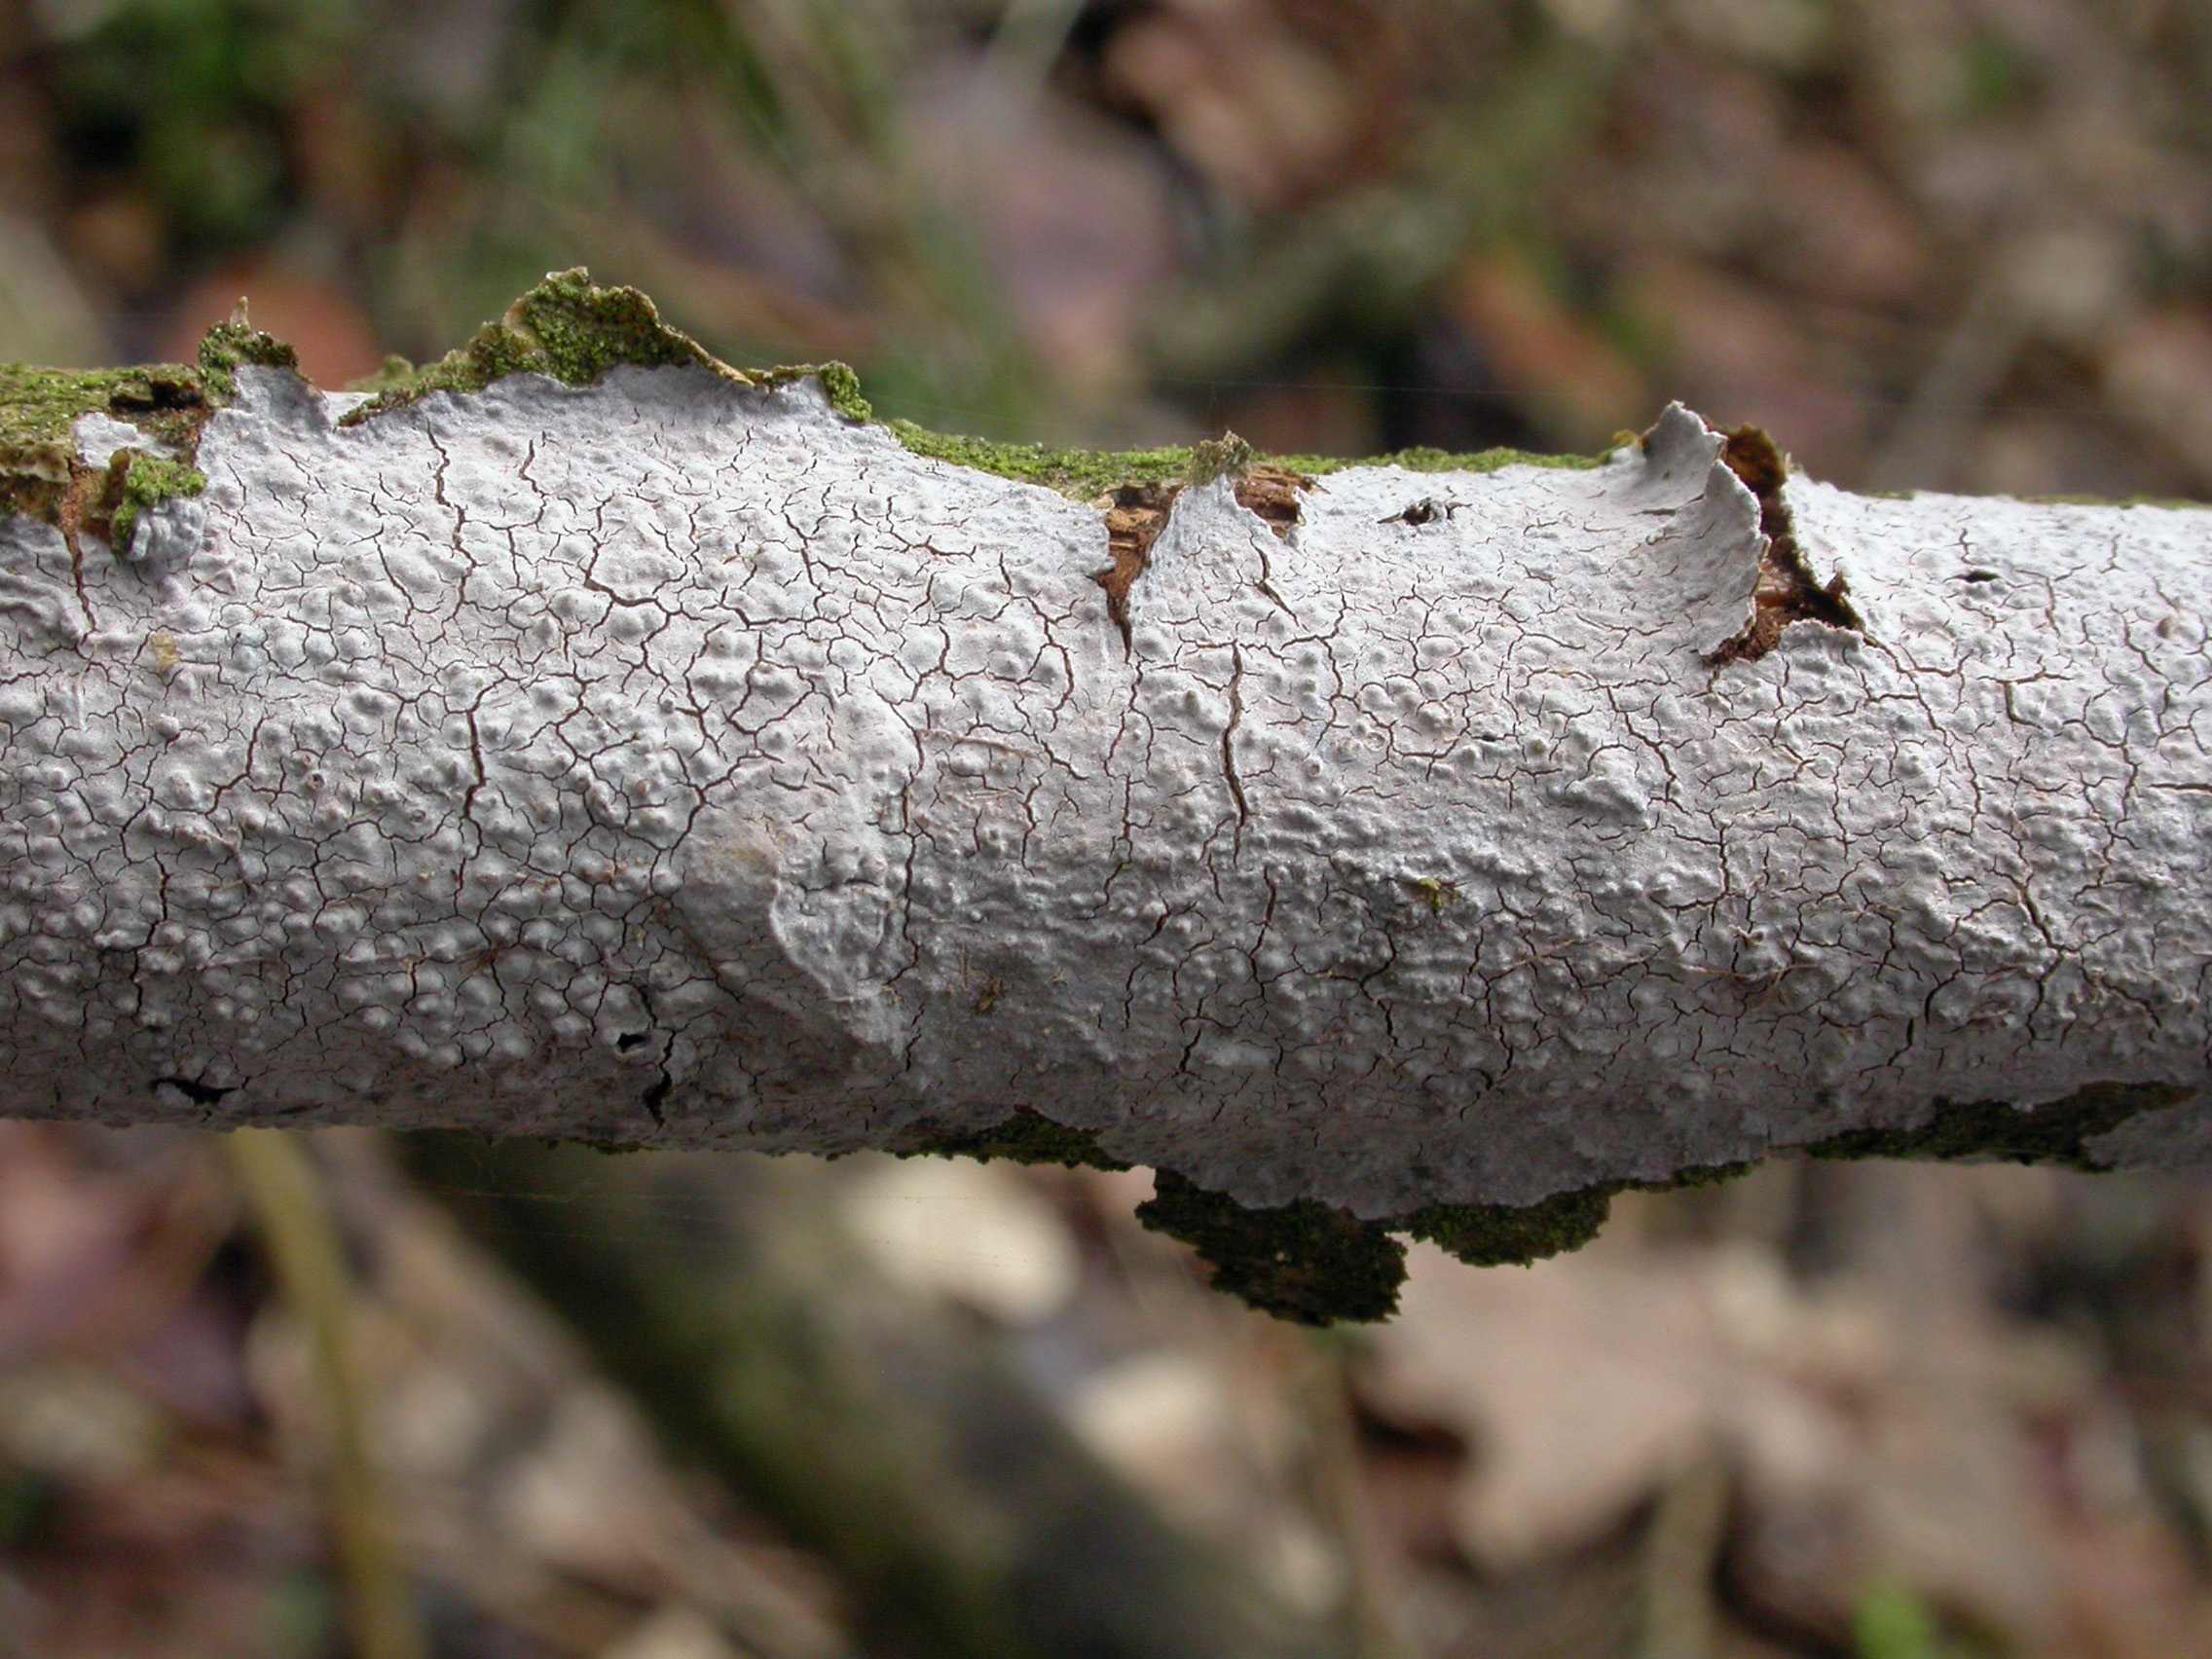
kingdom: Fungi
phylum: Basidiomycota
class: Agaricomycetes
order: Russulales
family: Peniophoraceae
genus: Peniophora
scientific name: Peniophora lycii
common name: grynet voksskind
